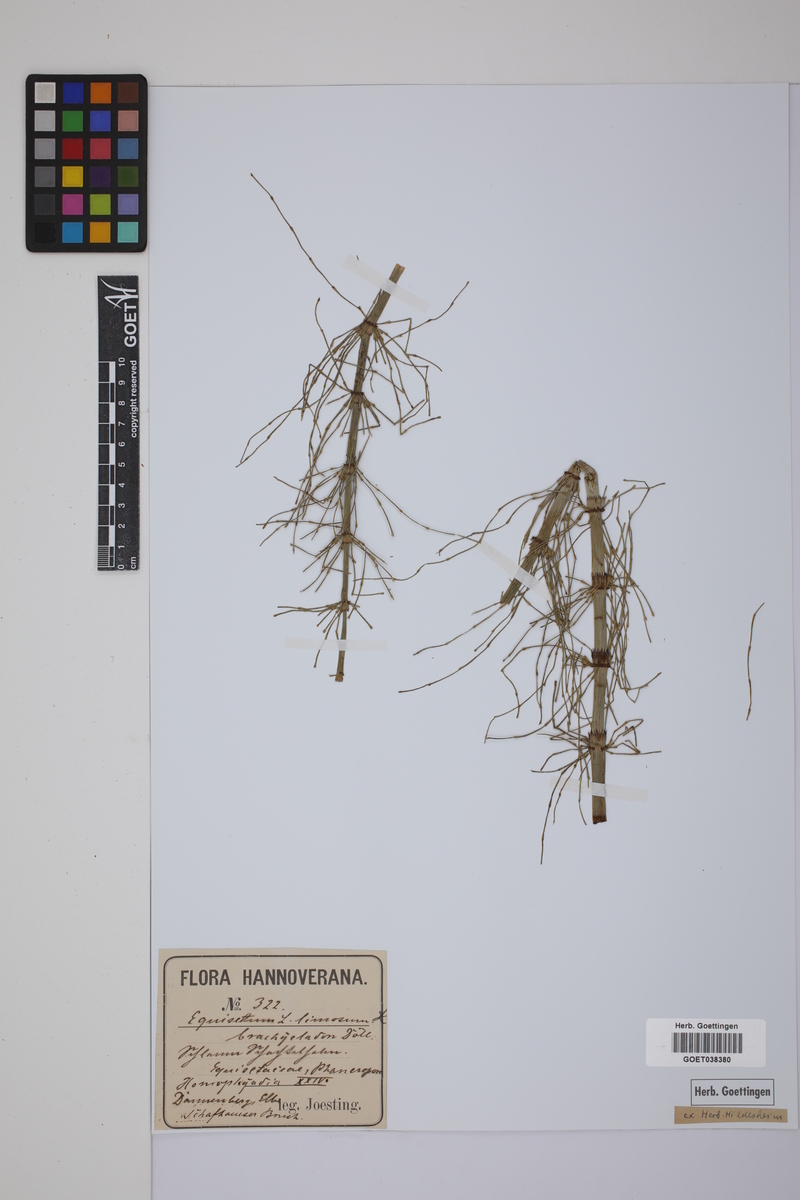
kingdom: Plantae
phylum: Tracheophyta
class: Polypodiopsida
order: Equisetales
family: Equisetaceae
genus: Equisetum
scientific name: Equisetum fluviatile
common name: Water horsetail
